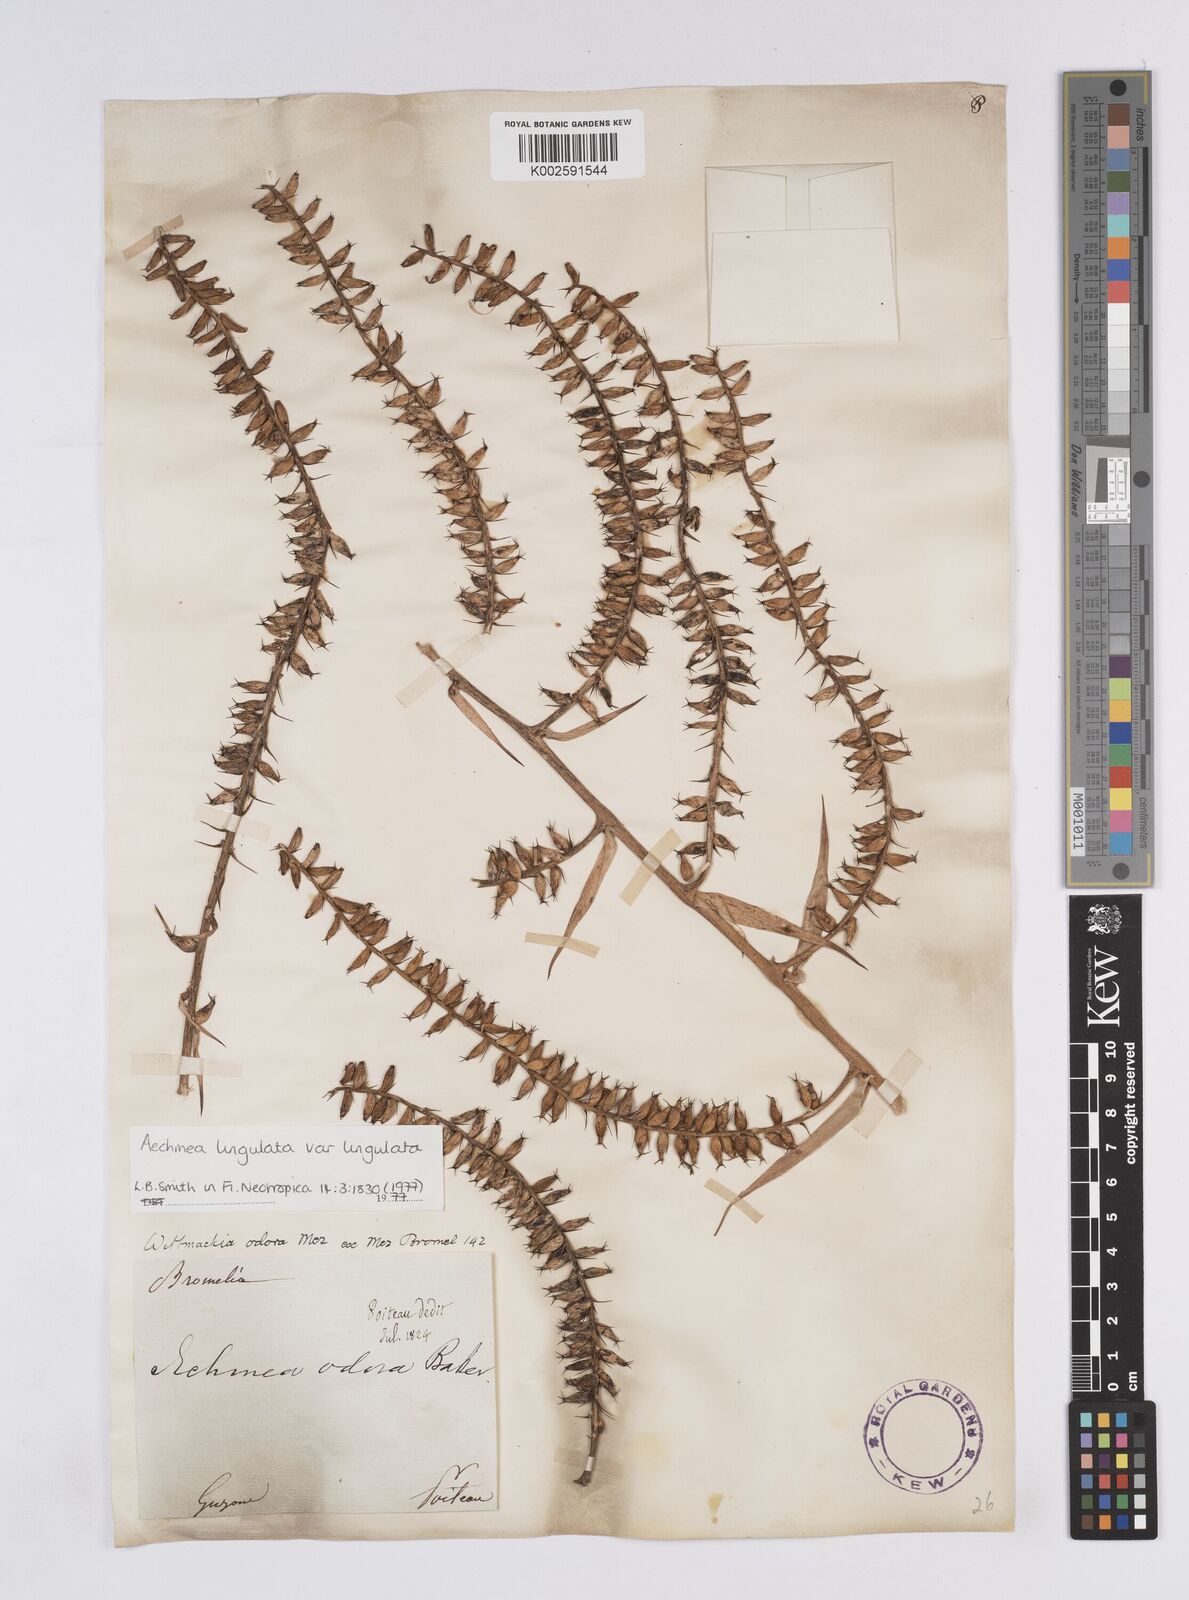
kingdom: Plantae
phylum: Tracheophyta
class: Liliopsida
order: Poales
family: Bromeliaceae
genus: Wittmackia
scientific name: Wittmackia lingulata
